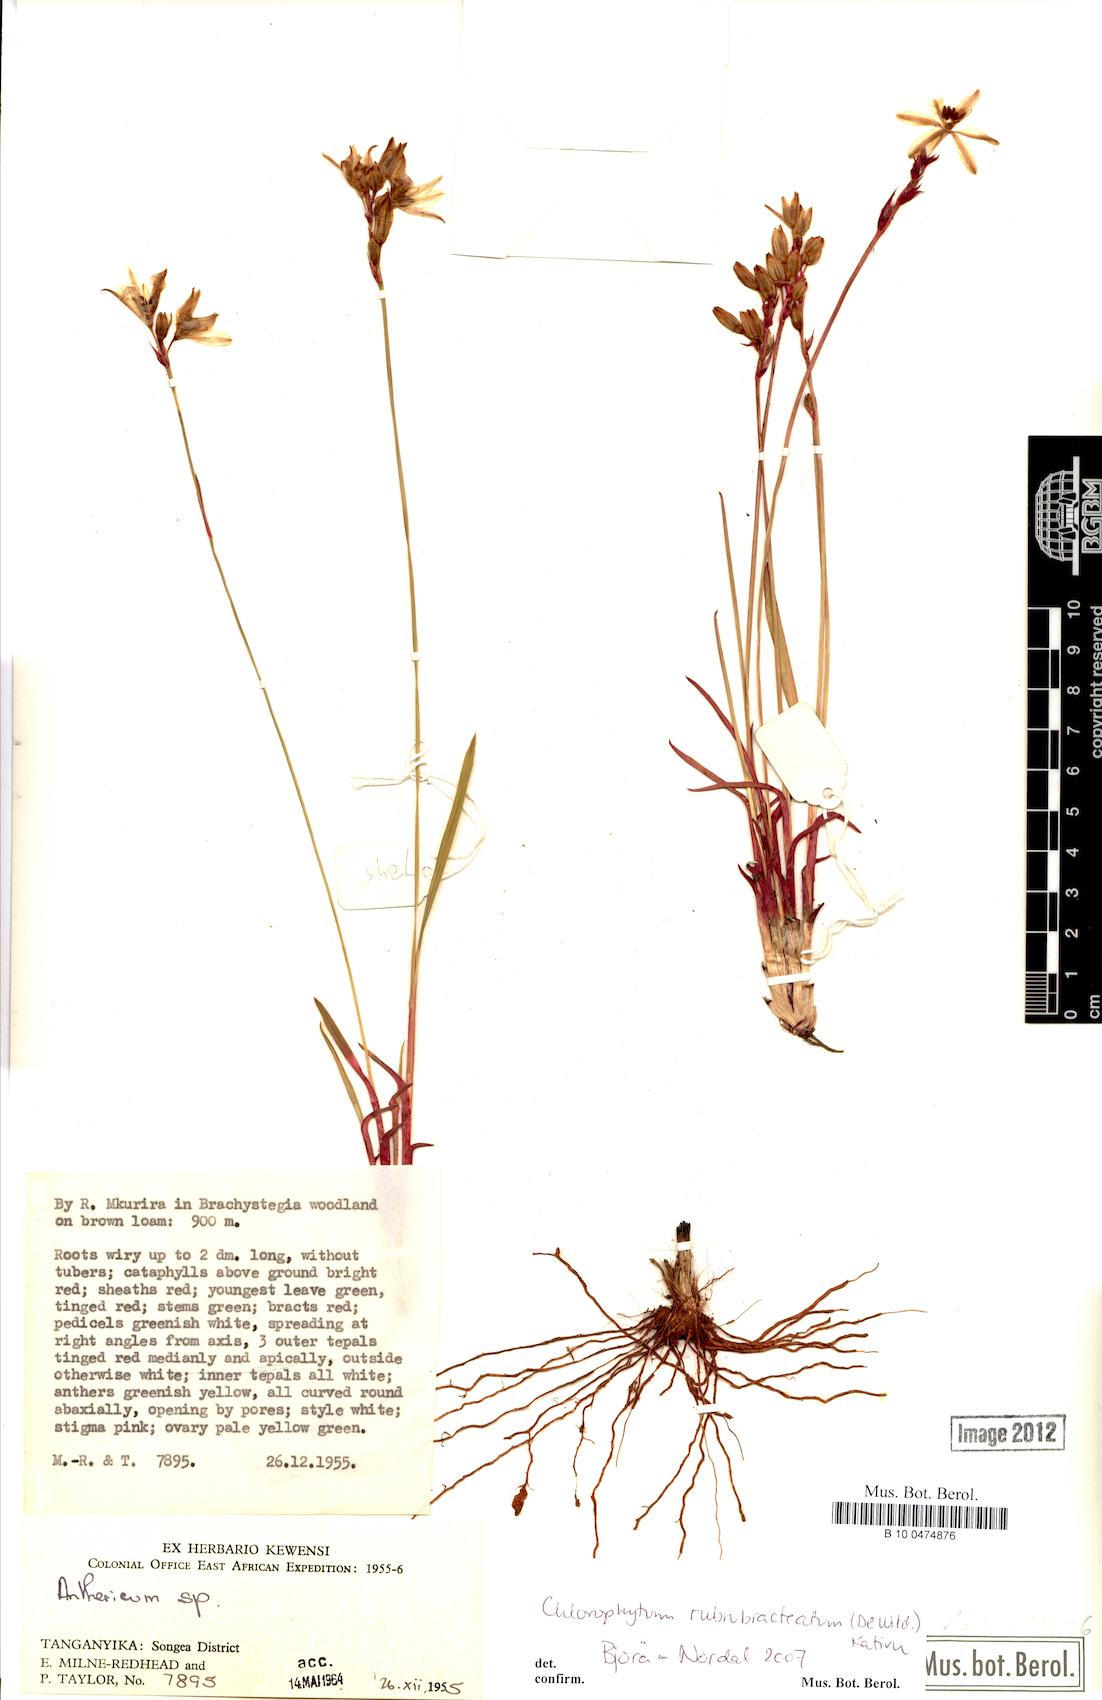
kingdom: Plantae
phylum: Tracheophyta
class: Liliopsida
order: Asparagales
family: Asparagaceae
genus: Chlorophytum
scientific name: Chlorophytum rubribracteatum
